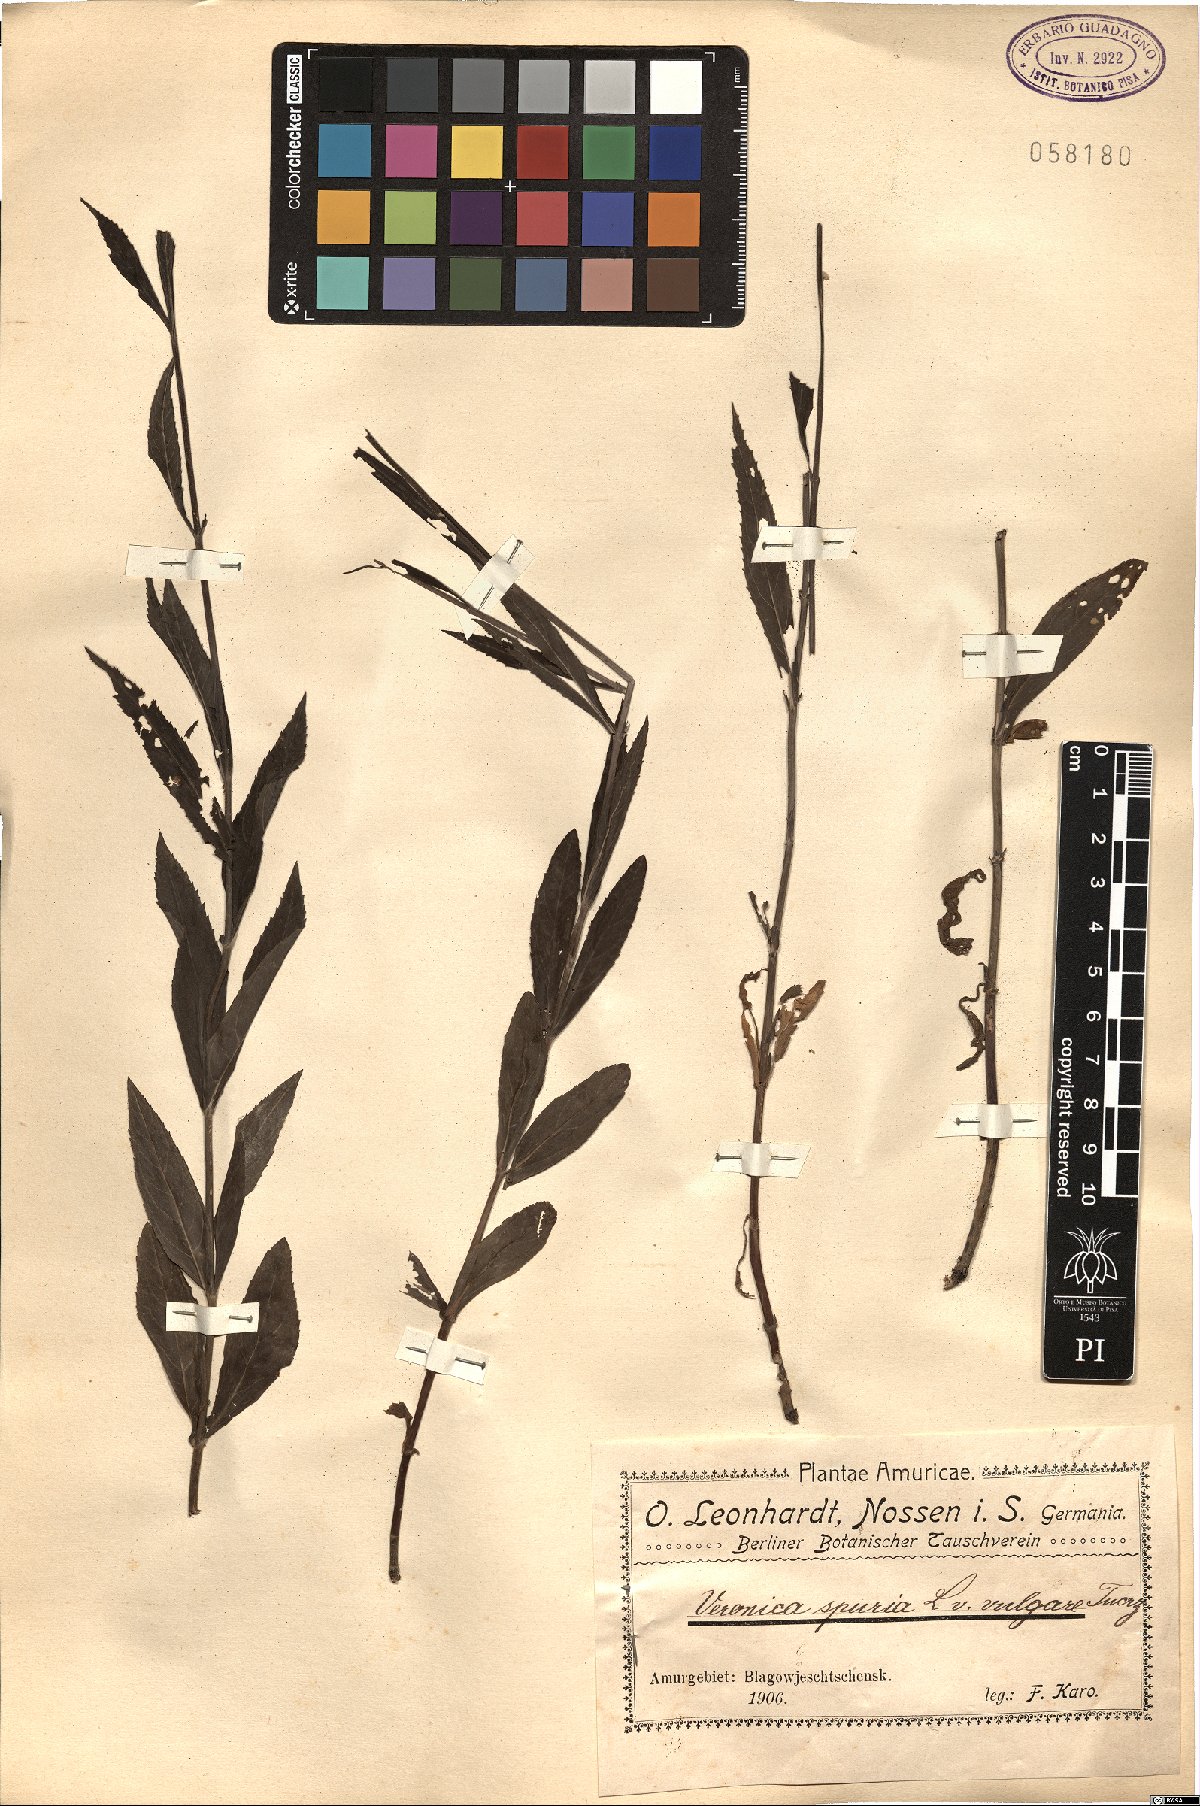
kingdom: Plantae
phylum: Tracheophyta
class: Magnoliopsida
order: Lamiales
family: Plantaginaceae
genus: Veronica
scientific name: Veronica spuria
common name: Bastard speedwell
